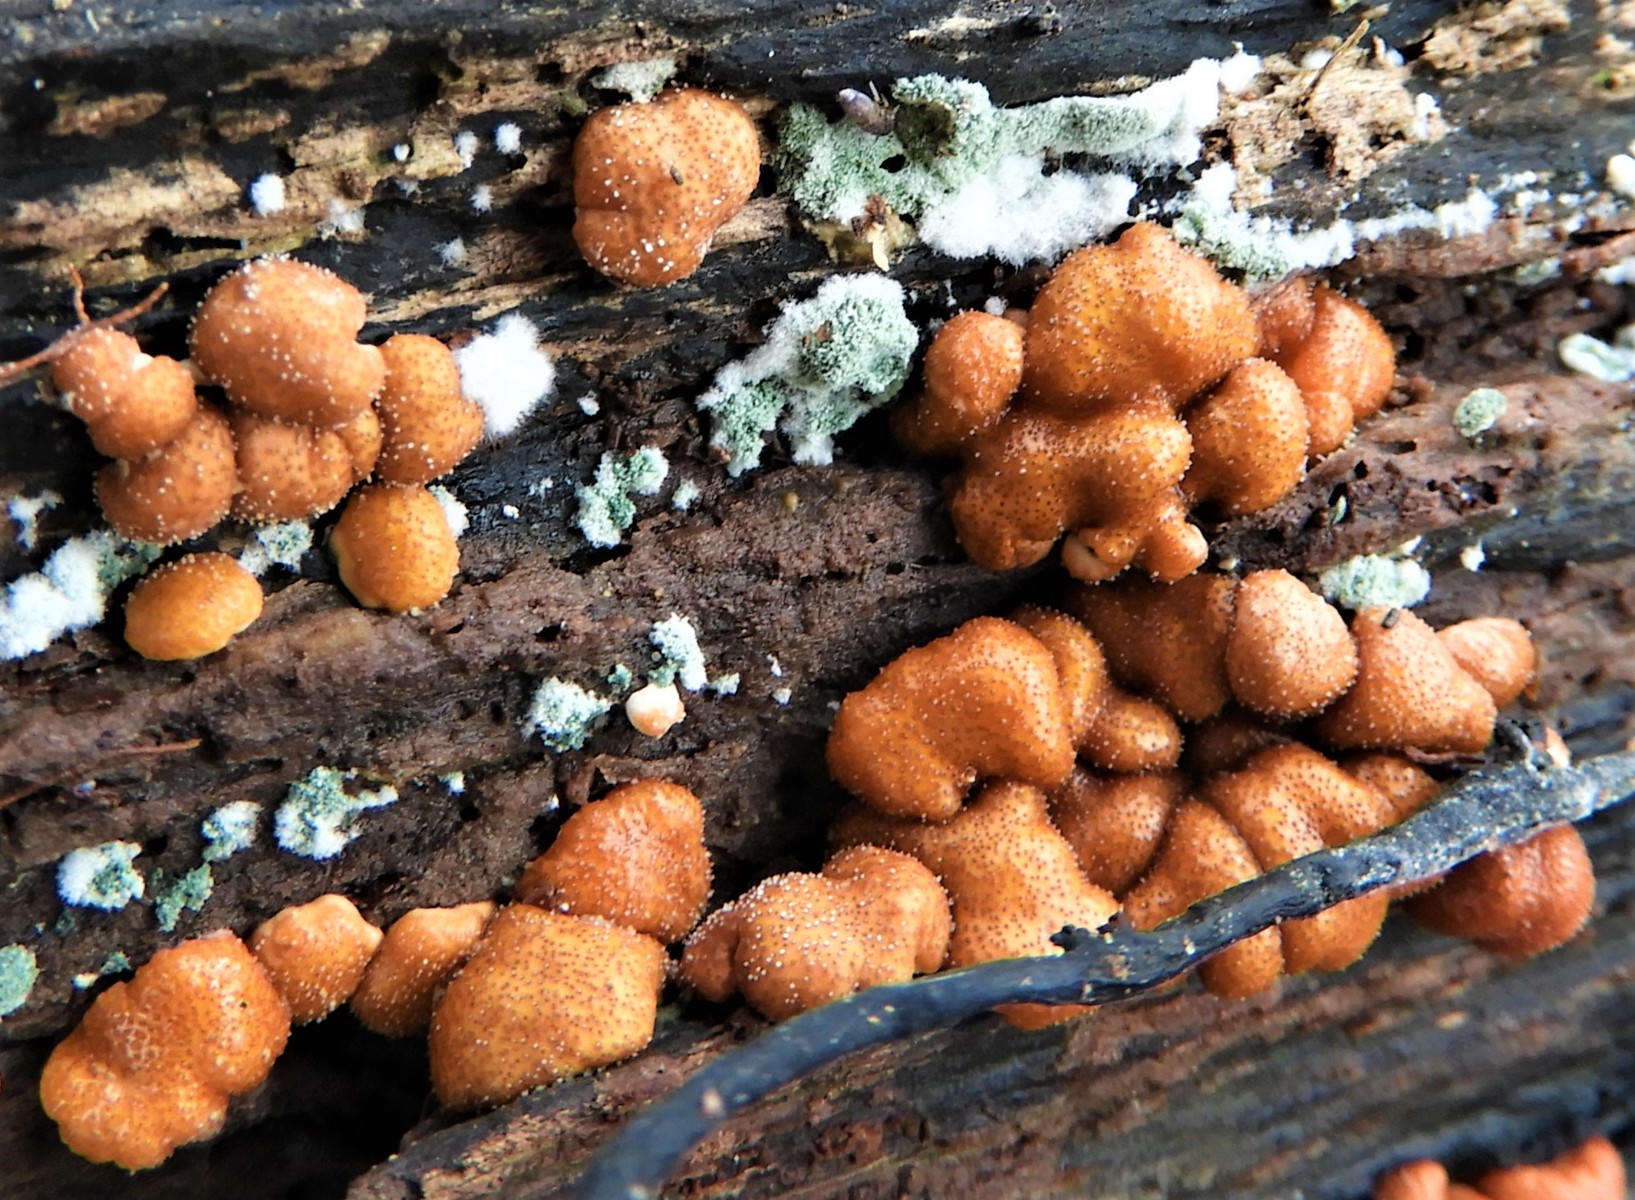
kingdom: Fungi
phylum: Ascomycota
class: Sordariomycetes
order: Hypocreales
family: Hypocreaceae
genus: Trichoderma
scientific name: Trichoderma europaeum
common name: rosabrun kødkerne
